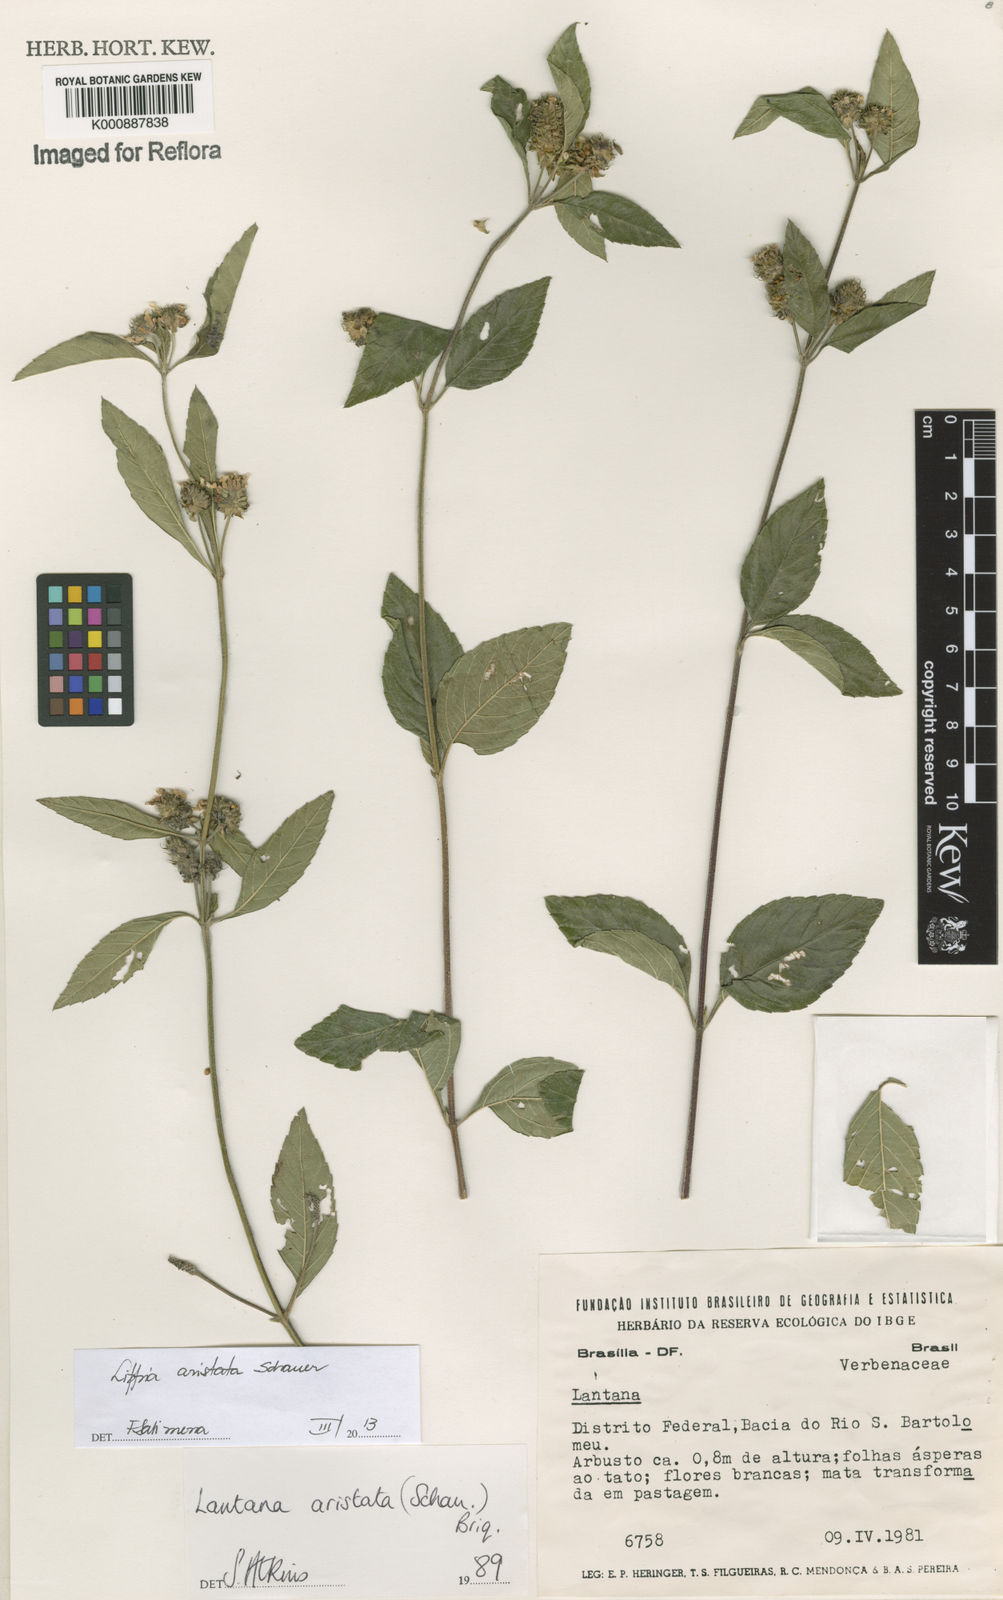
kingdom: Plantae
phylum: Tracheophyta
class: Magnoliopsida
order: Lamiales
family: Verbenaceae
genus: Lippia
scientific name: Lippia aristata
